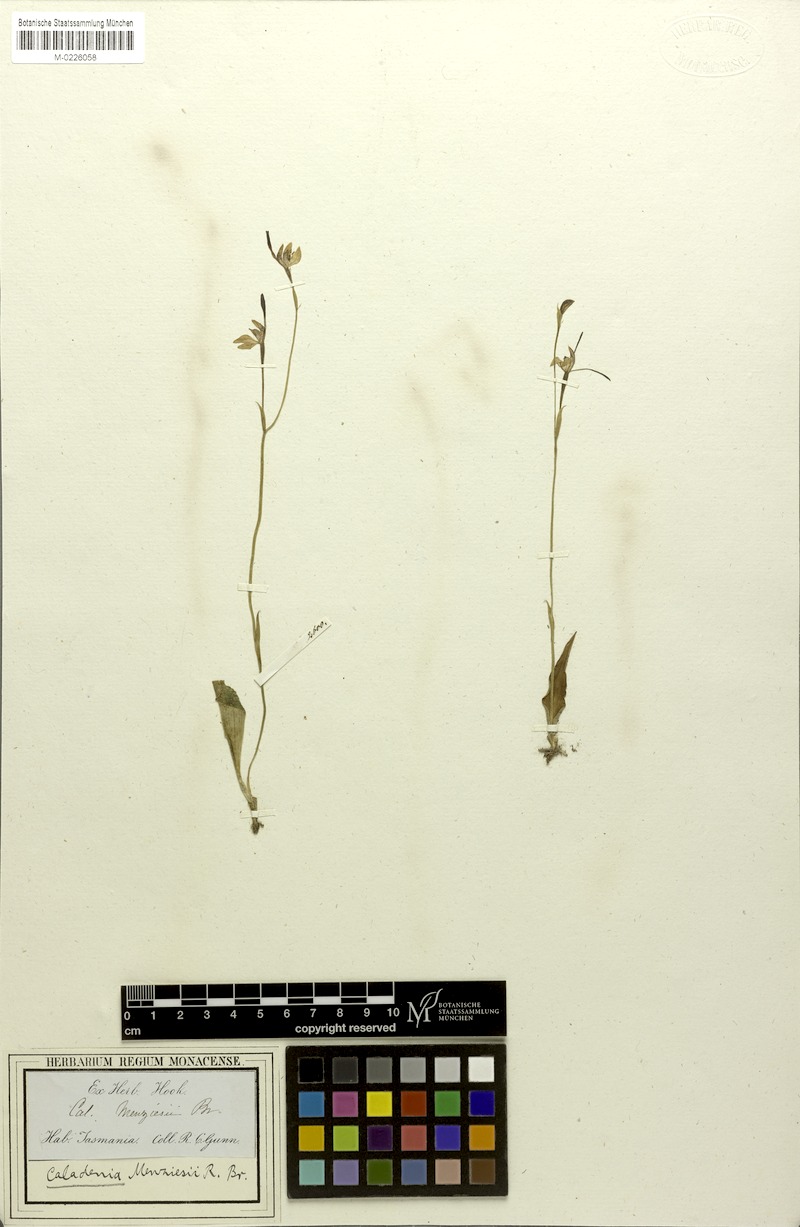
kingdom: Plantae
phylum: Tracheophyta
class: Liliopsida
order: Asparagales
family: Orchidaceae
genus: Leptoceras
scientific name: Leptoceras menziesii
